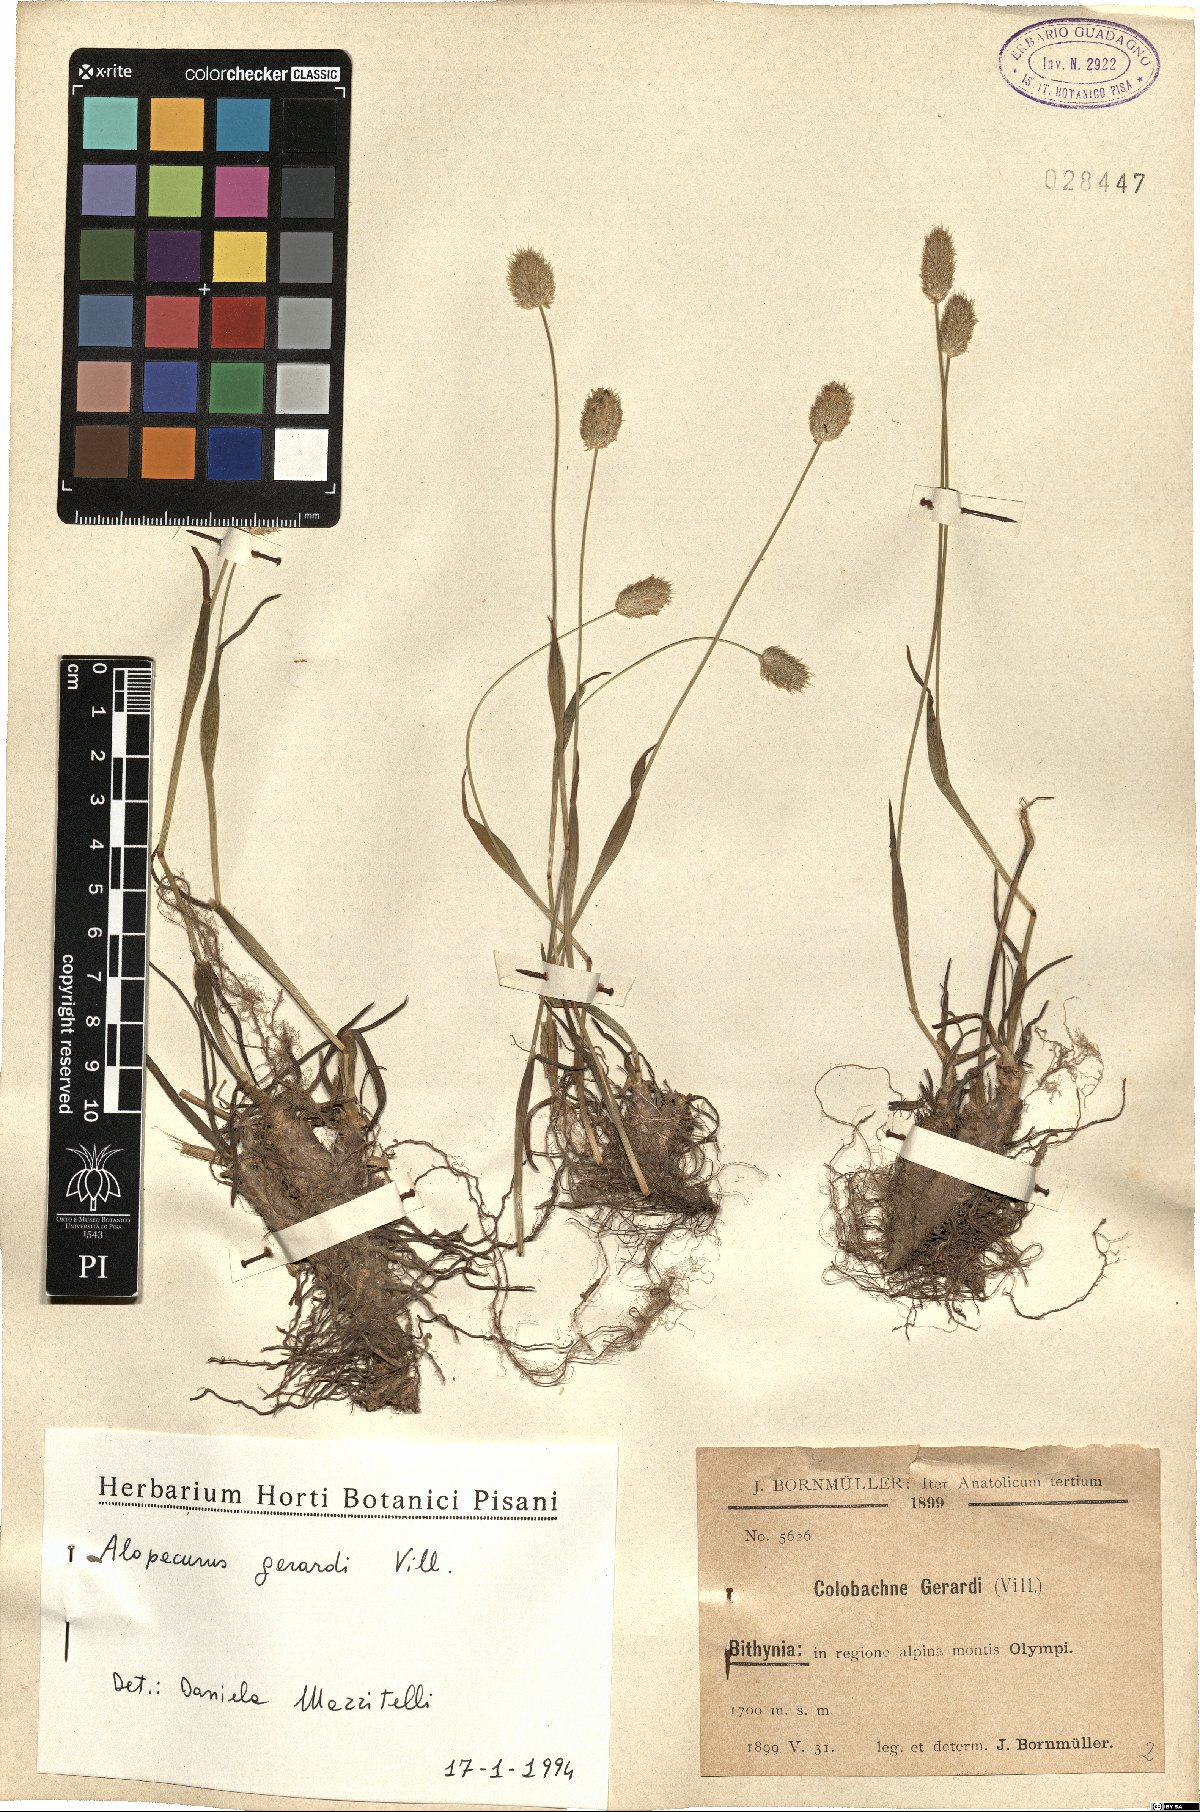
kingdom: Plantae
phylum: Tracheophyta
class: Liliopsida
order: Poales
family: Poaceae
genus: Alopecurus
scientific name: Alopecurus gerardii
